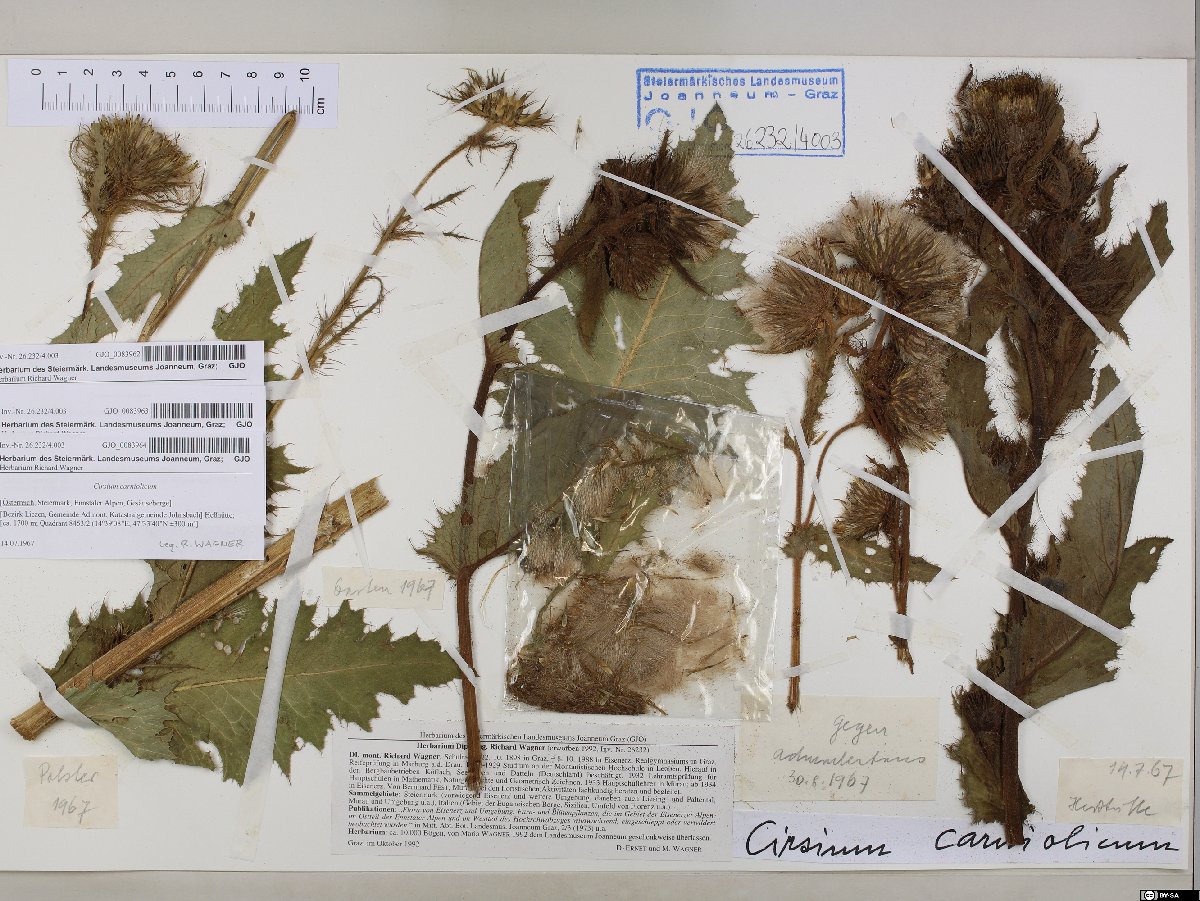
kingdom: Plantae
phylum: Tracheophyta
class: Magnoliopsida
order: Asterales
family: Asteraceae
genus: Cirsium
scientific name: Cirsium carniolicum
